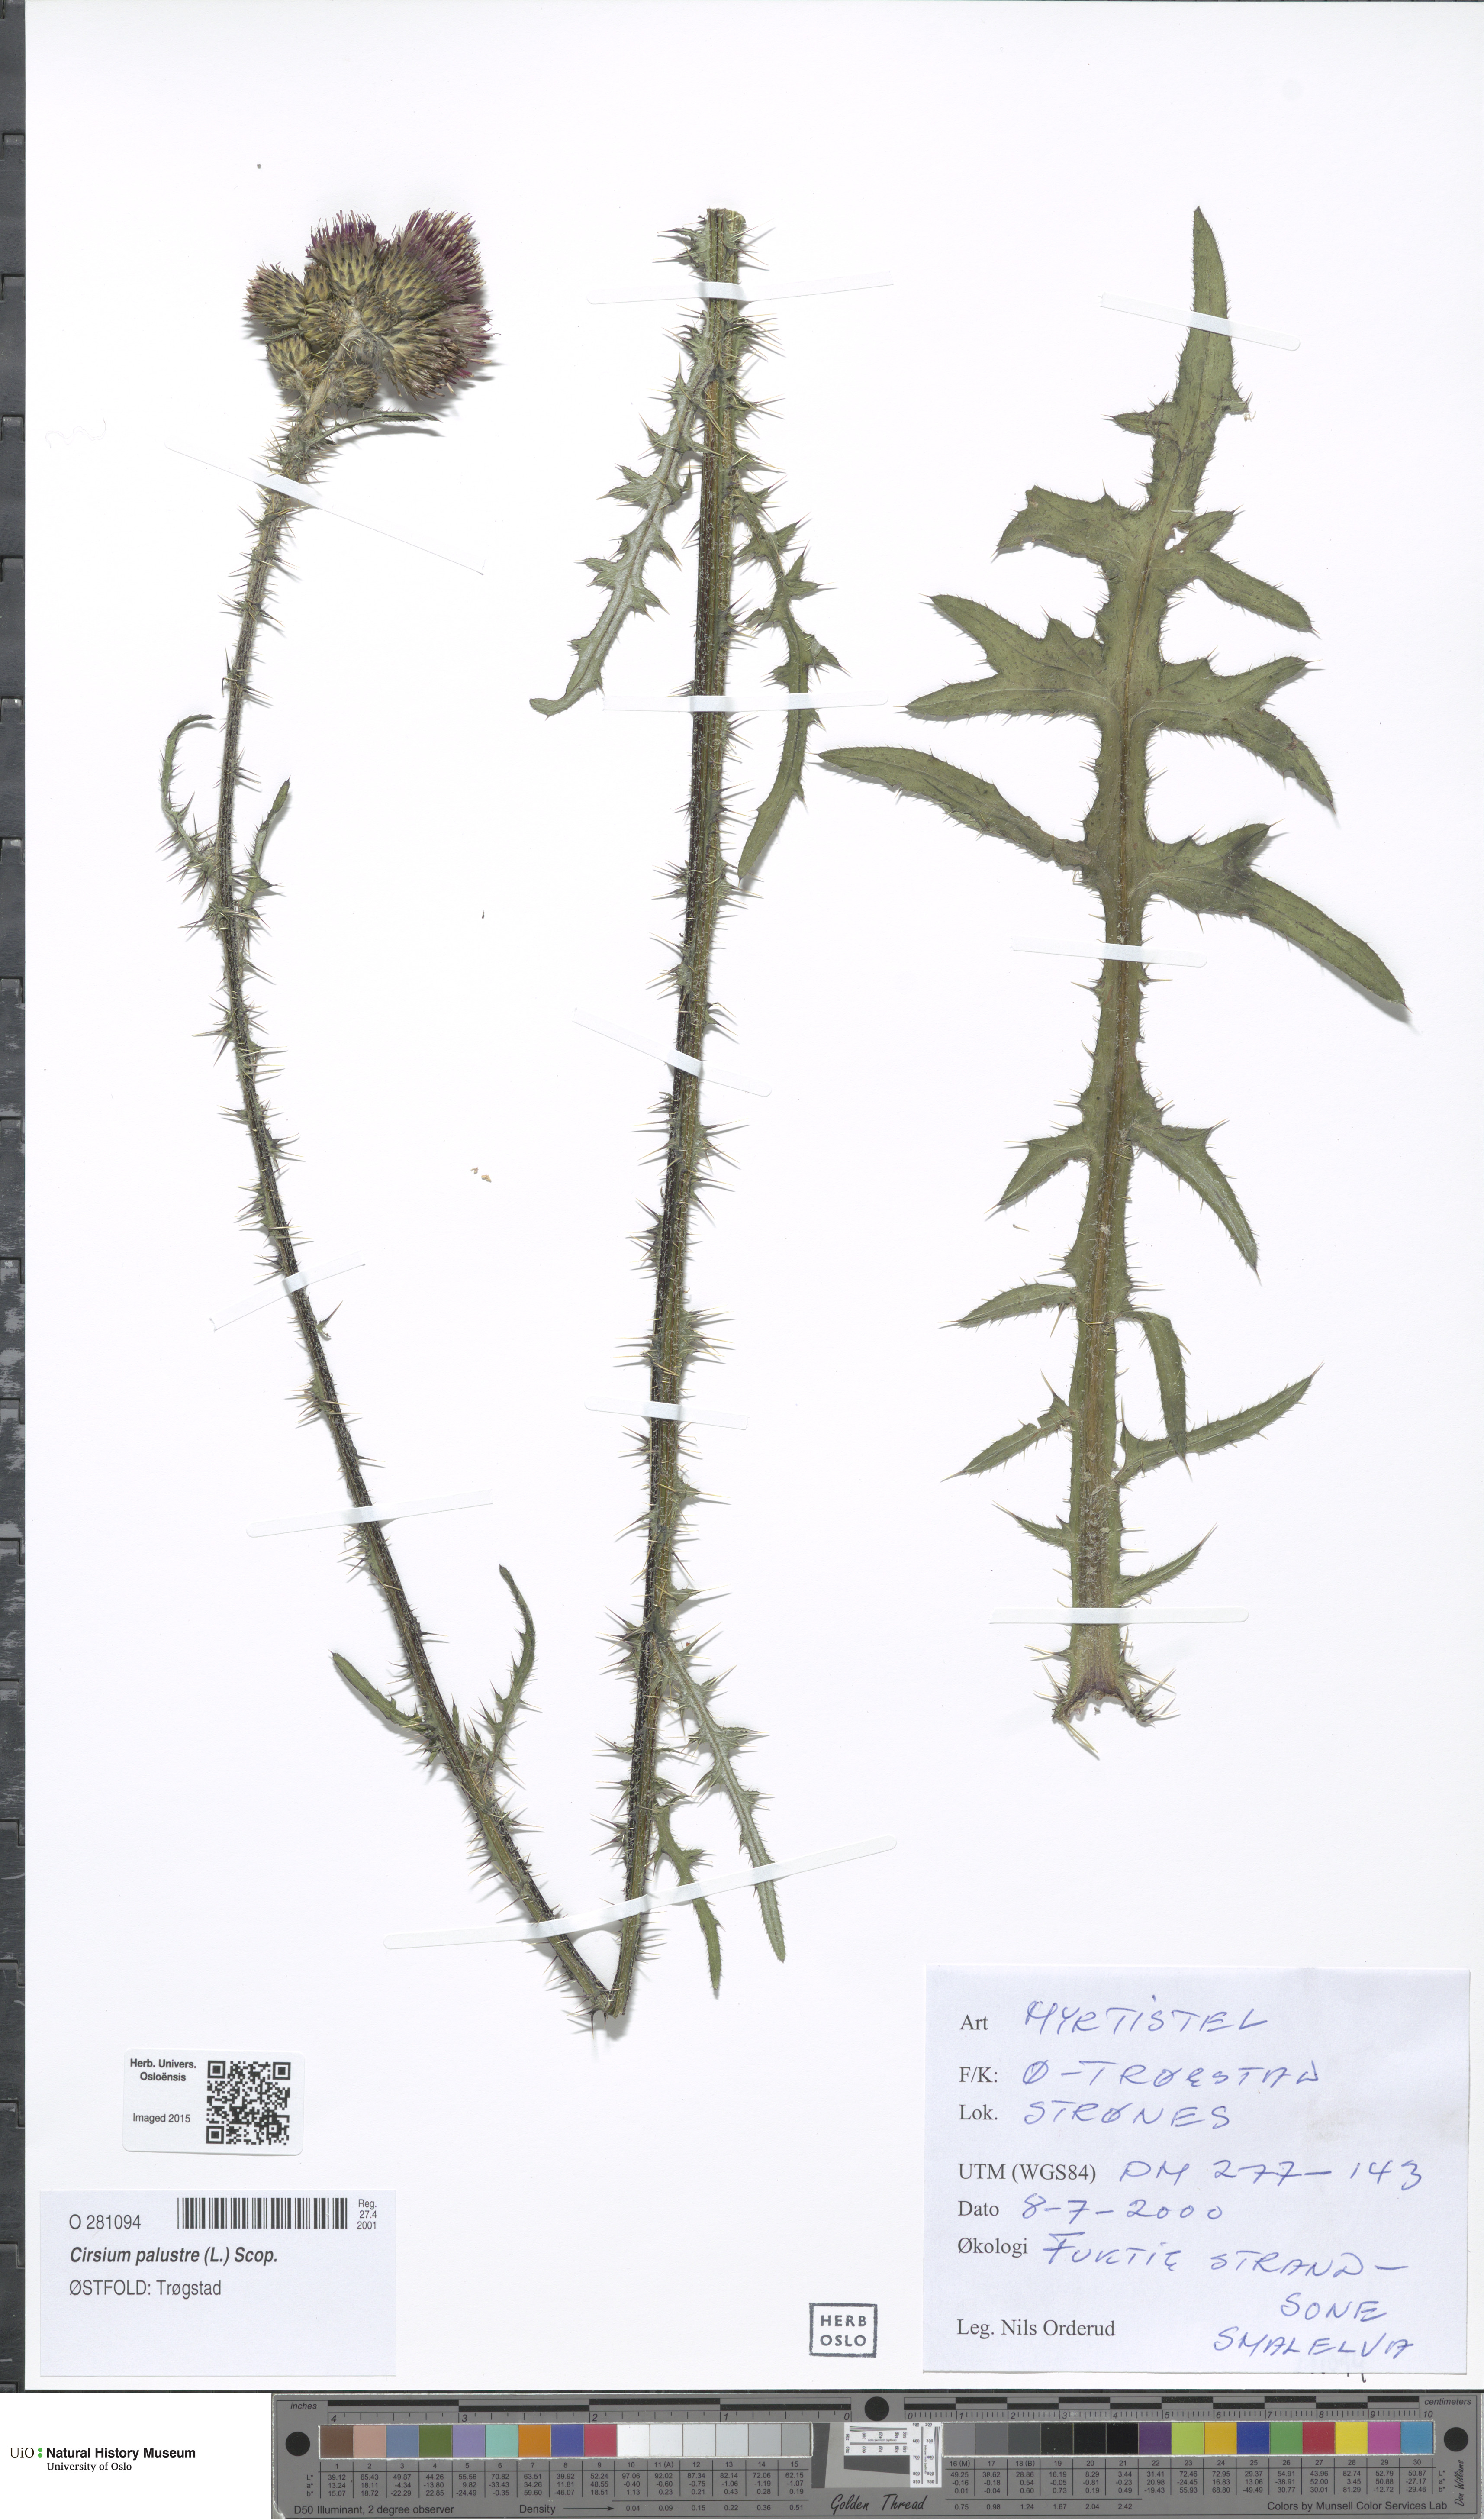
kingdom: Plantae
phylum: Tracheophyta
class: Magnoliopsida
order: Asterales
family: Asteraceae
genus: Cirsium
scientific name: Cirsium palustre
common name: Marsh thistle
